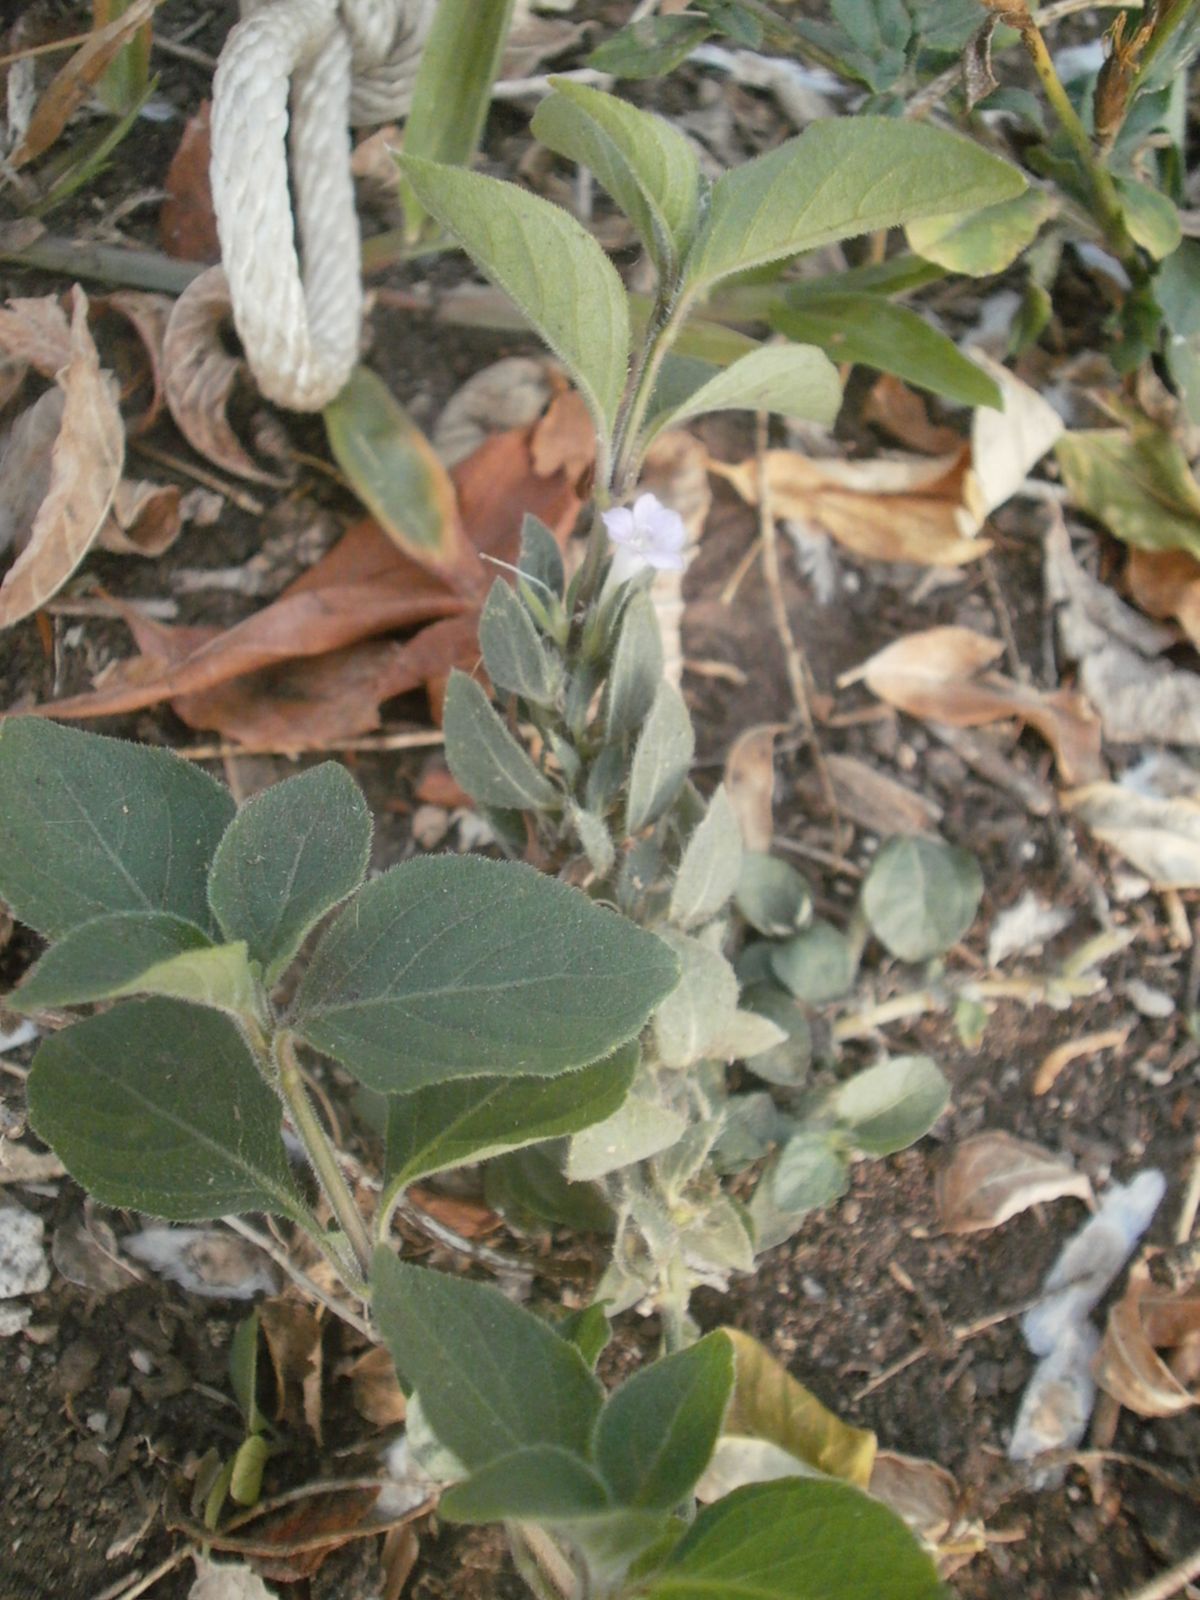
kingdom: Plantae
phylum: Tracheophyta
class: Magnoliopsida
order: Lamiales
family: Acanthaceae
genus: Ruellia
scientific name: Ruellia blechum
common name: Browne's blechum
